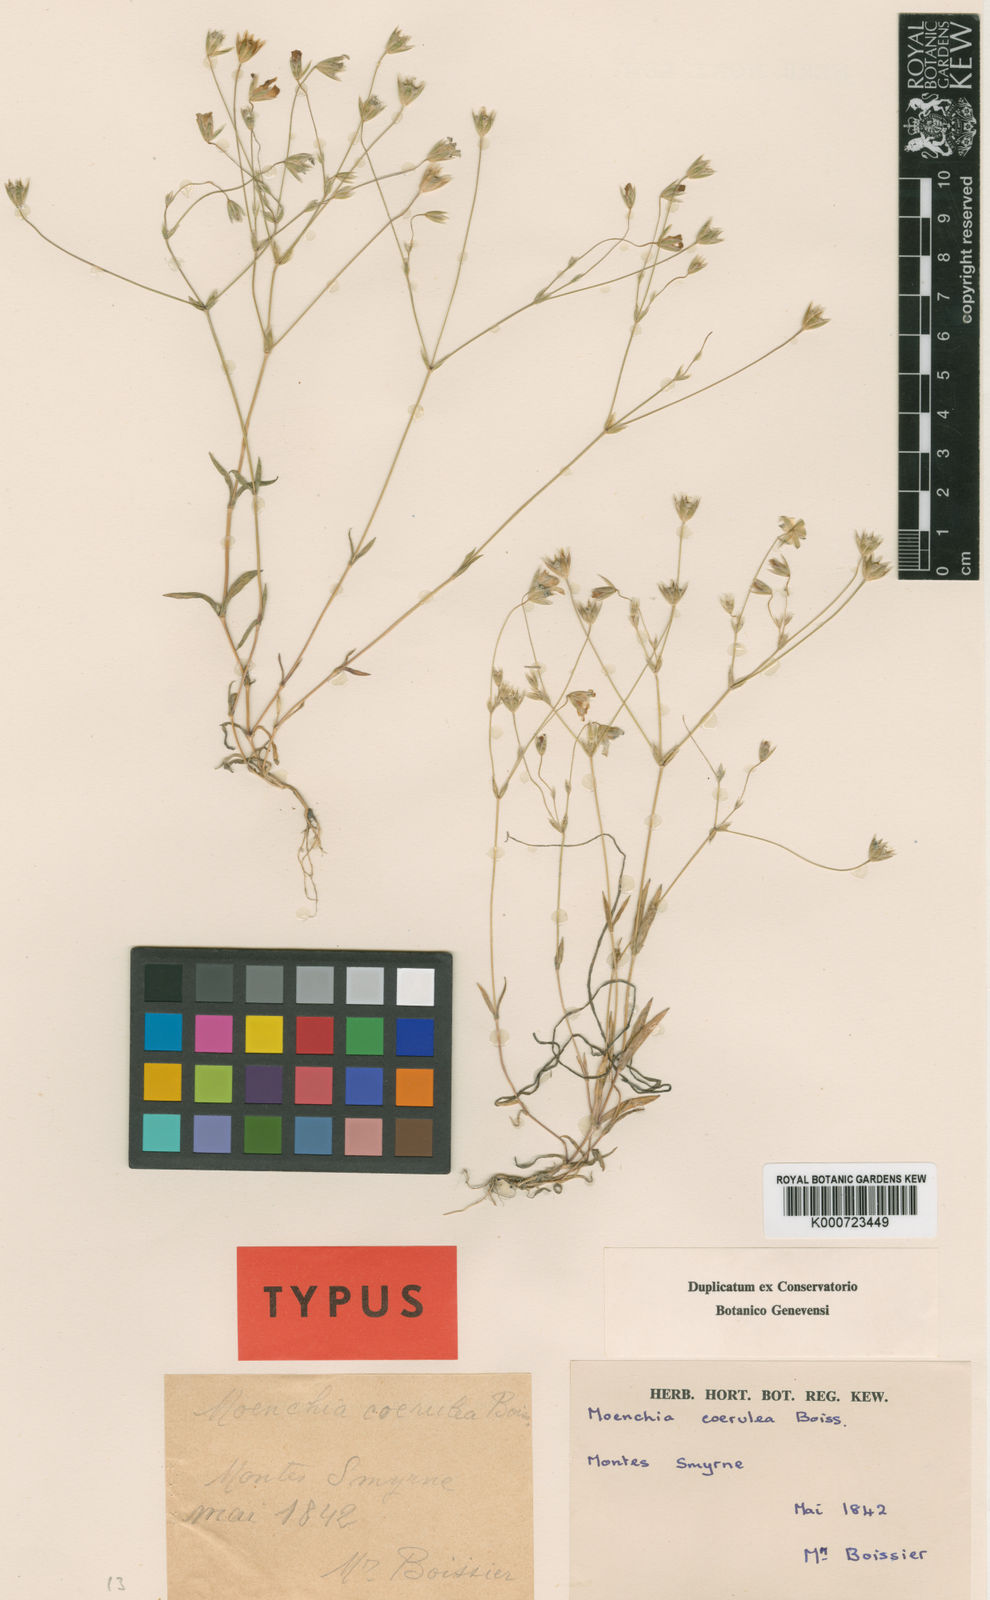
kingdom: Plantae
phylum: Tracheophyta
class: Magnoliopsida
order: Caryophyllales
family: Caryophyllaceae
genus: Moenchia
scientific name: Moenchia
